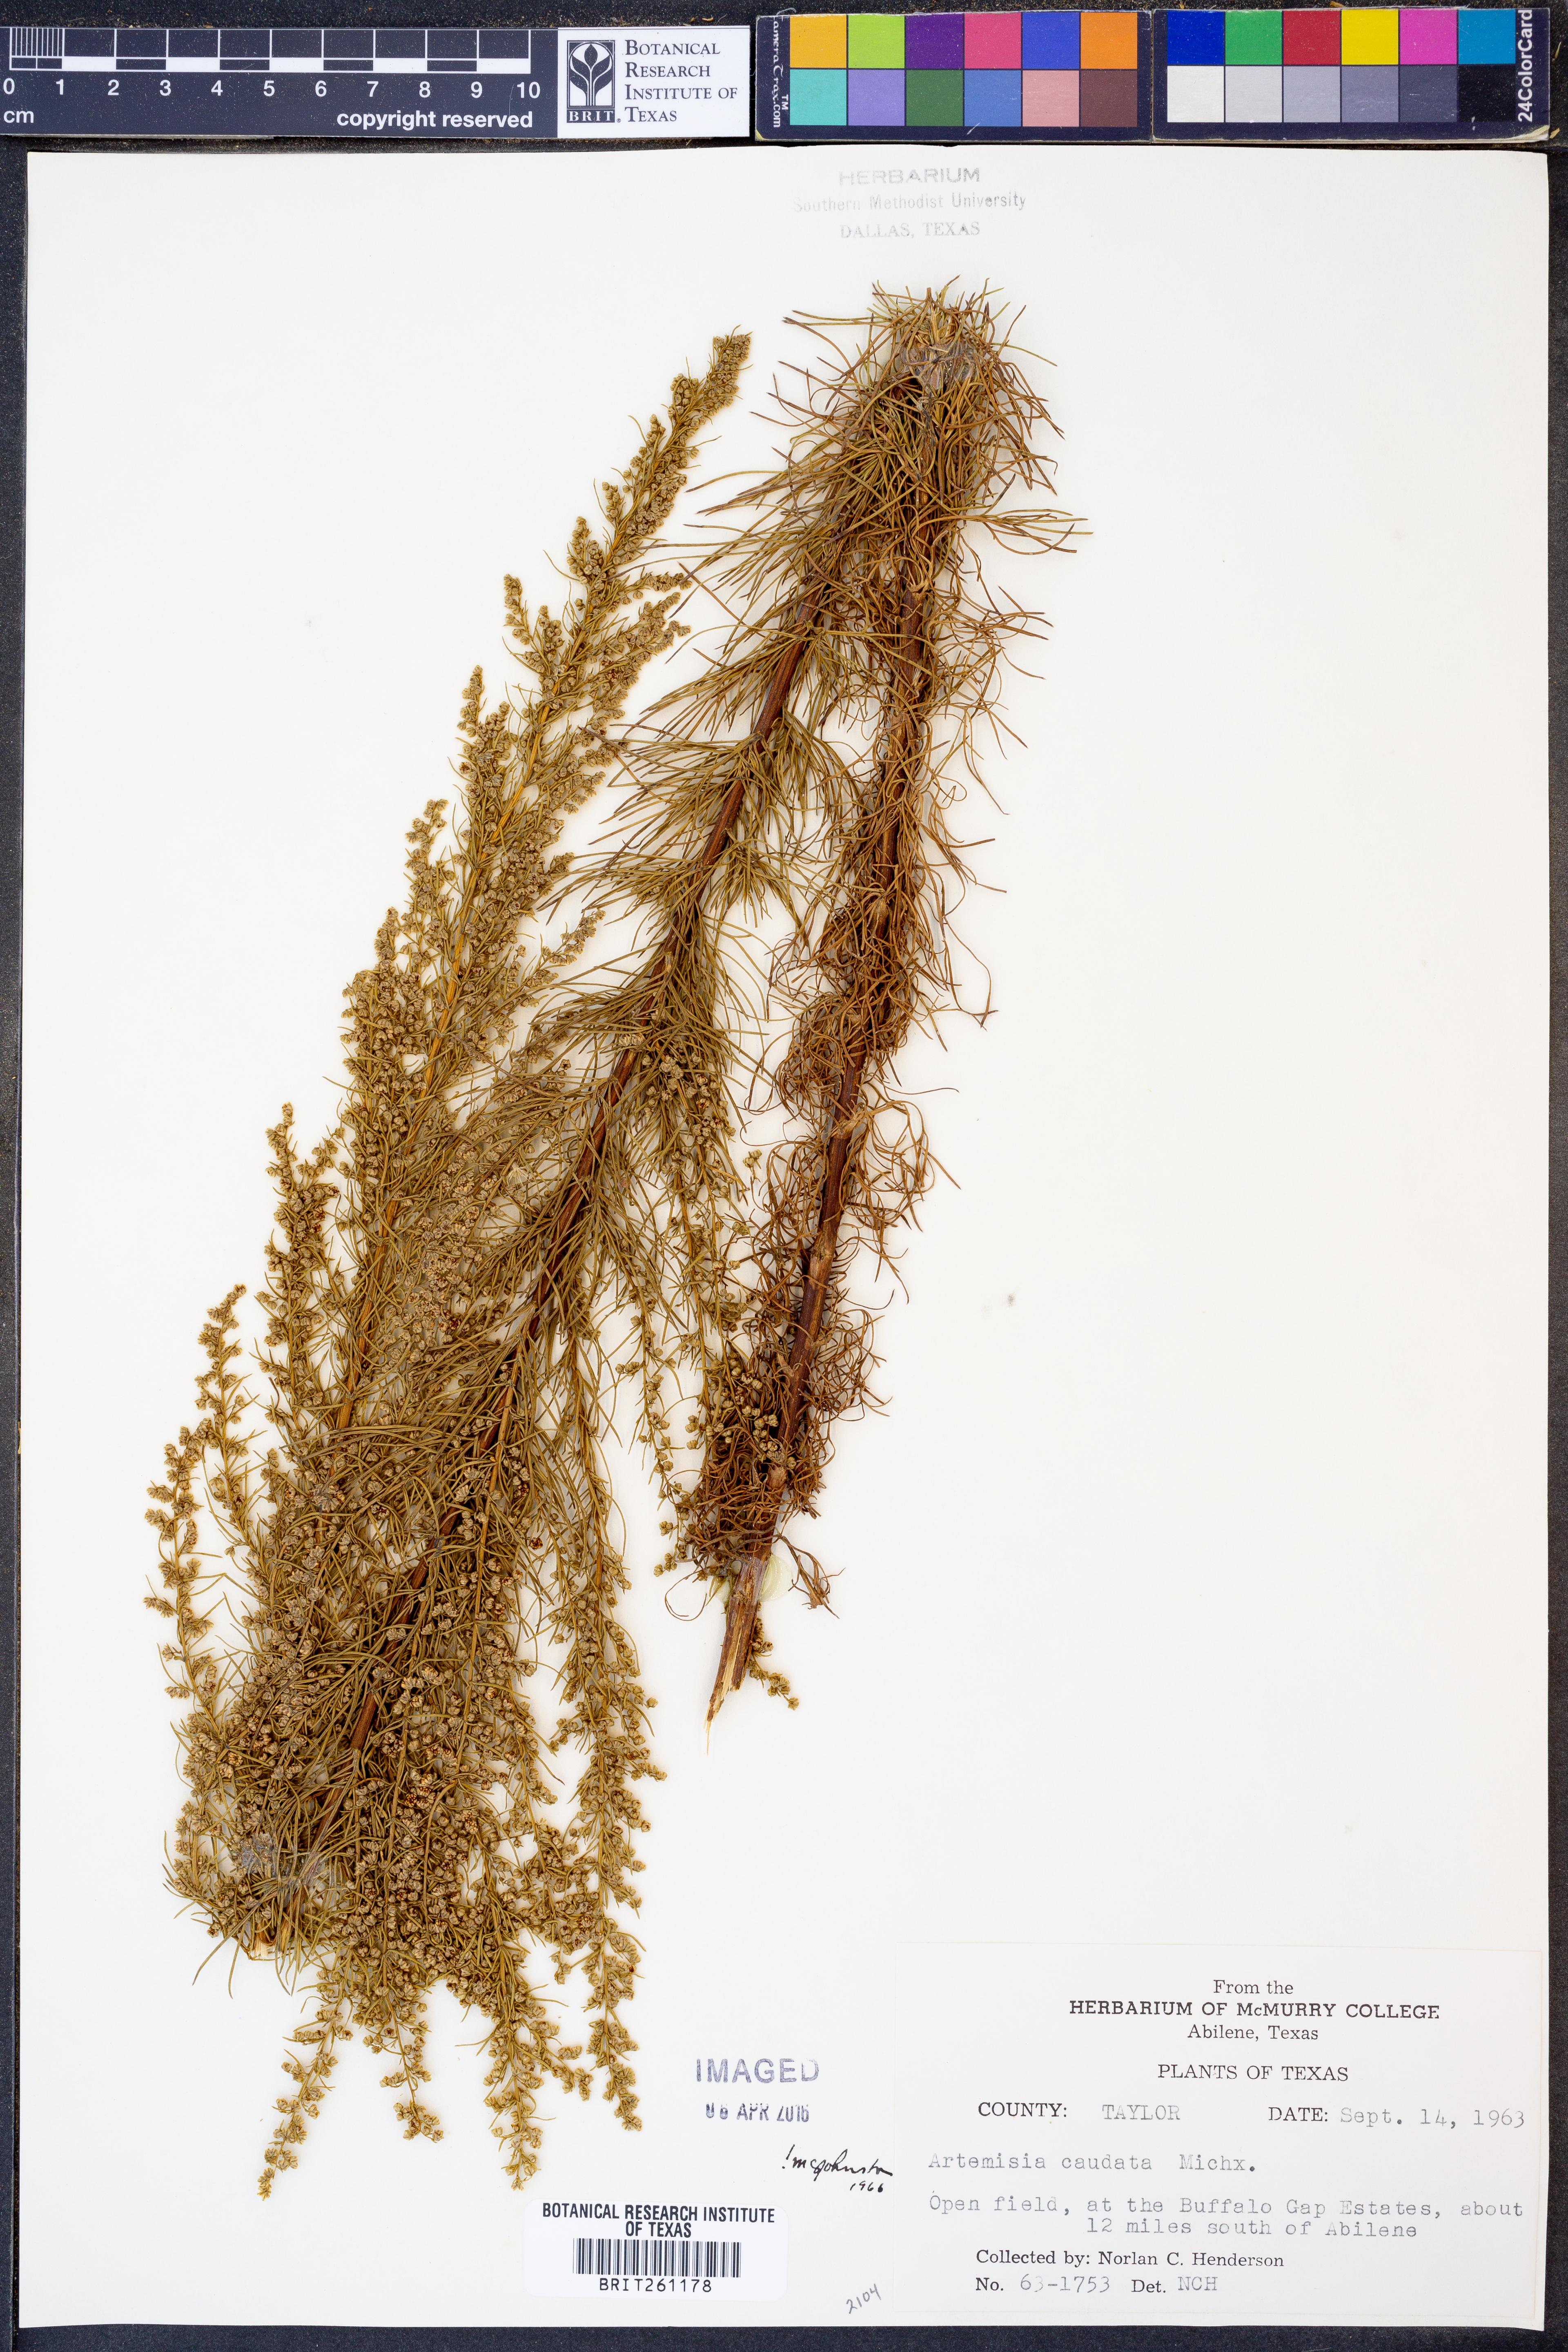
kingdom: Plantae
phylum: Tracheophyta
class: Magnoliopsida
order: Asterales
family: Asteraceae
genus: Artemisia
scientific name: Artemisia campestris
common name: Field wormwood
